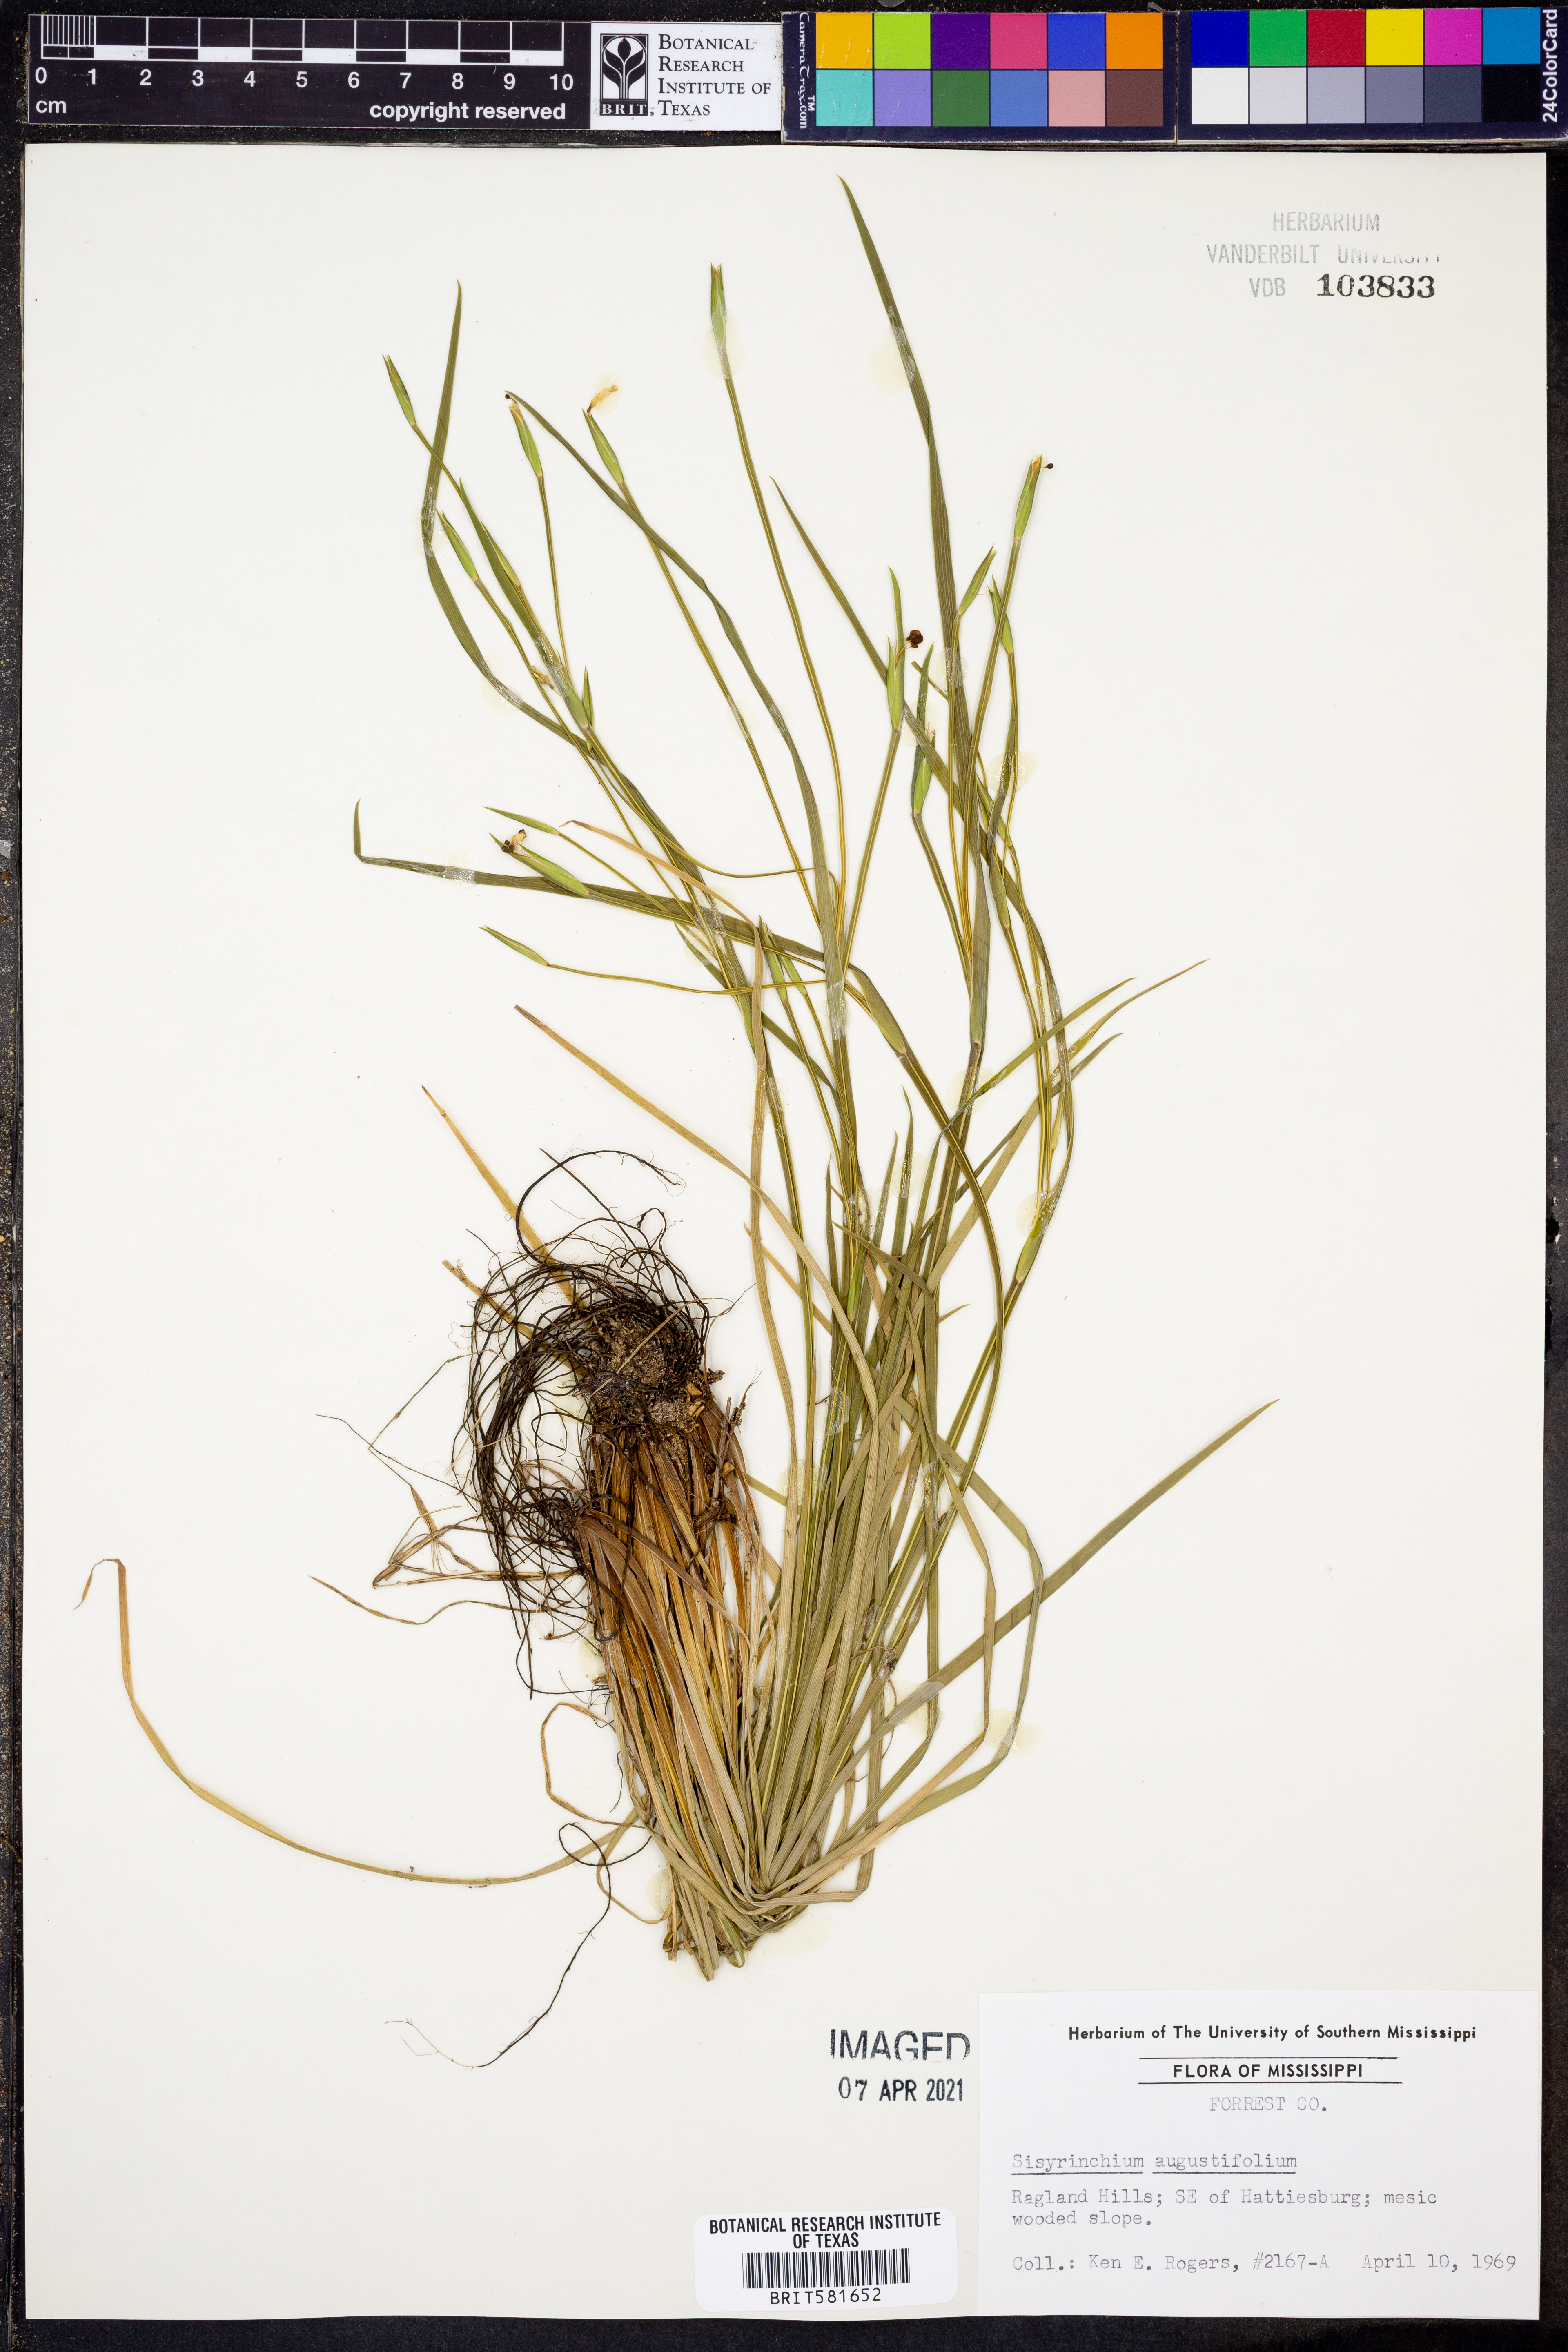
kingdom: Plantae
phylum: Tracheophyta
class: Liliopsida
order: Asparagales
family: Iridaceae
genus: Sisyrinchium
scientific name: Sisyrinchium angustifolium
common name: Narrow-leaf blue-eyed-grass
